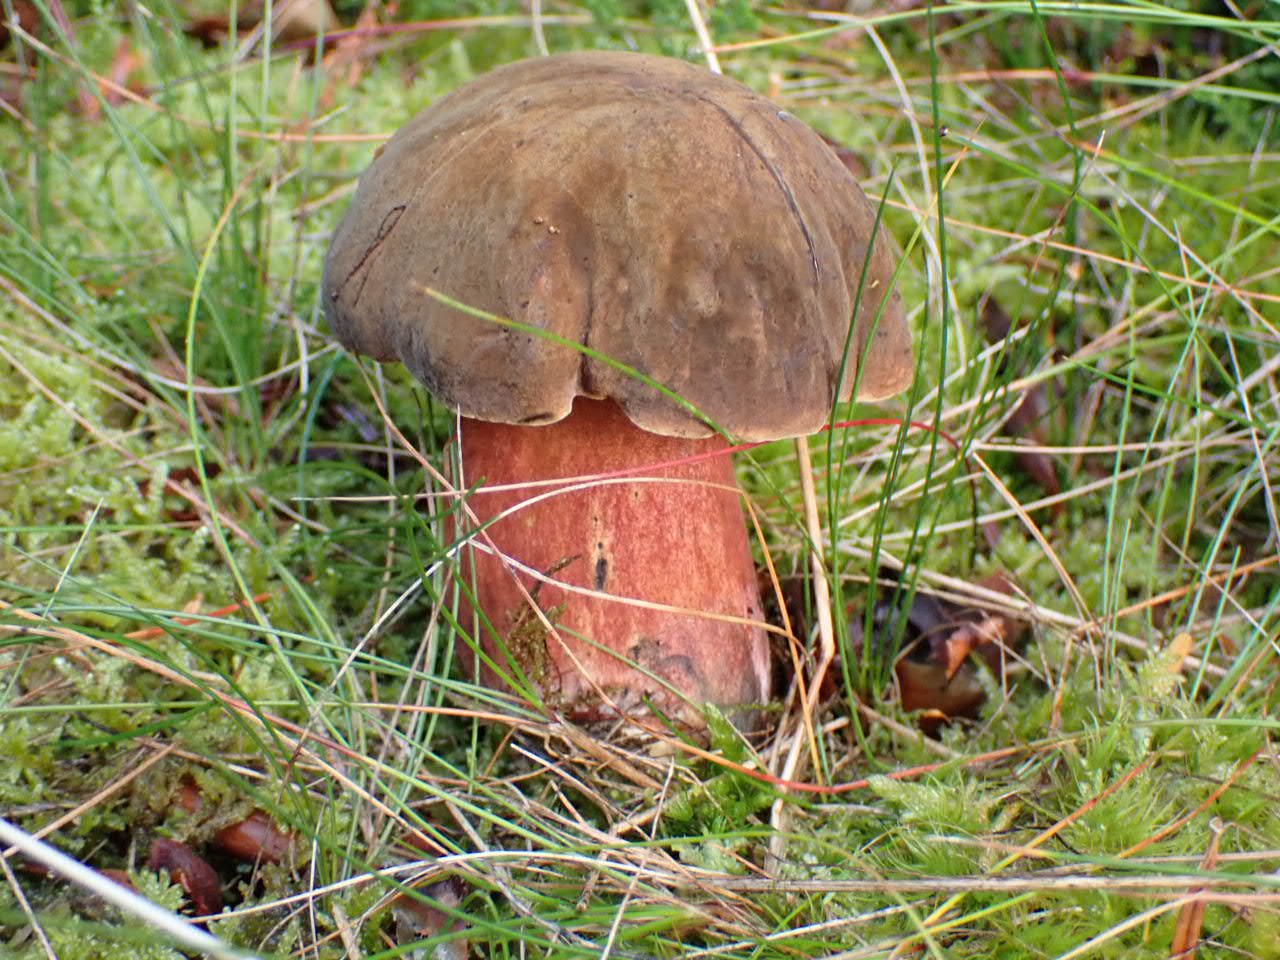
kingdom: Fungi
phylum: Basidiomycota
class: Agaricomycetes
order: Boletales
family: Boletaceae
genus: Neoboletus
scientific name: Neoboletus erythropus
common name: punktstokket indigorørhat
